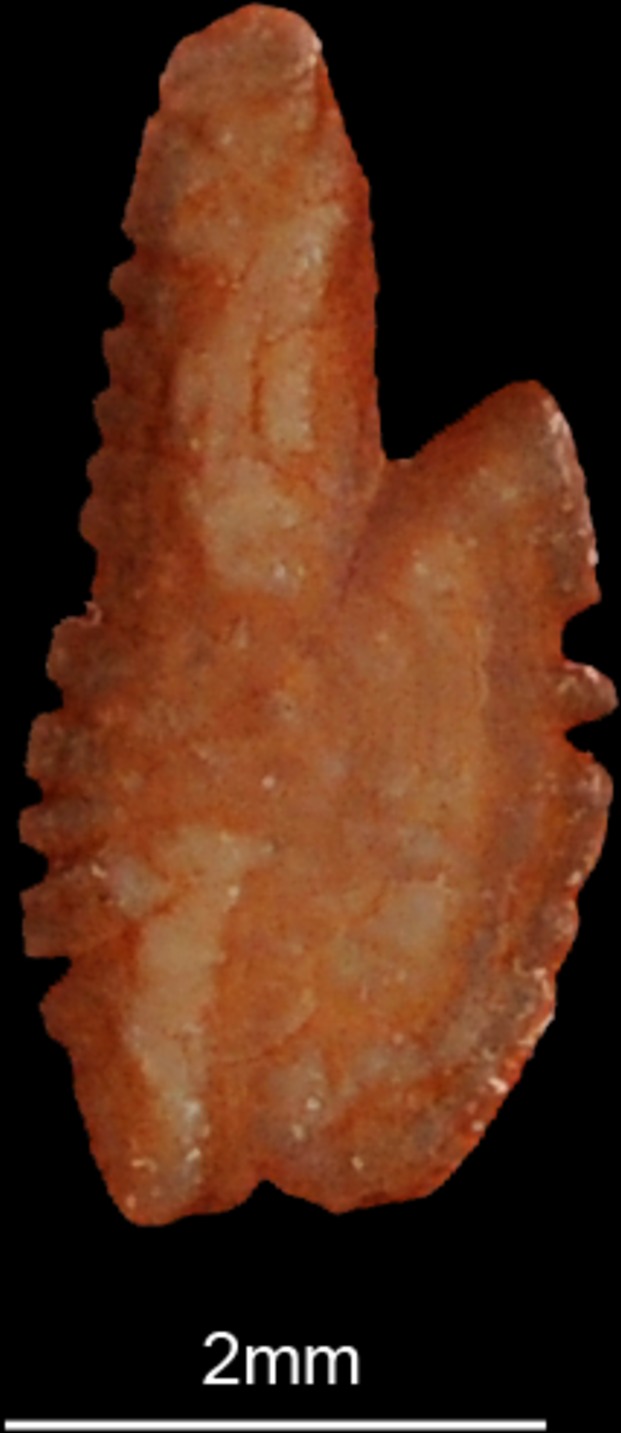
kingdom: Animalia
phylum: Chordata
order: Perciformes
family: Labridae
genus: Coris
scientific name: Coris aygula
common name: Clown coris
